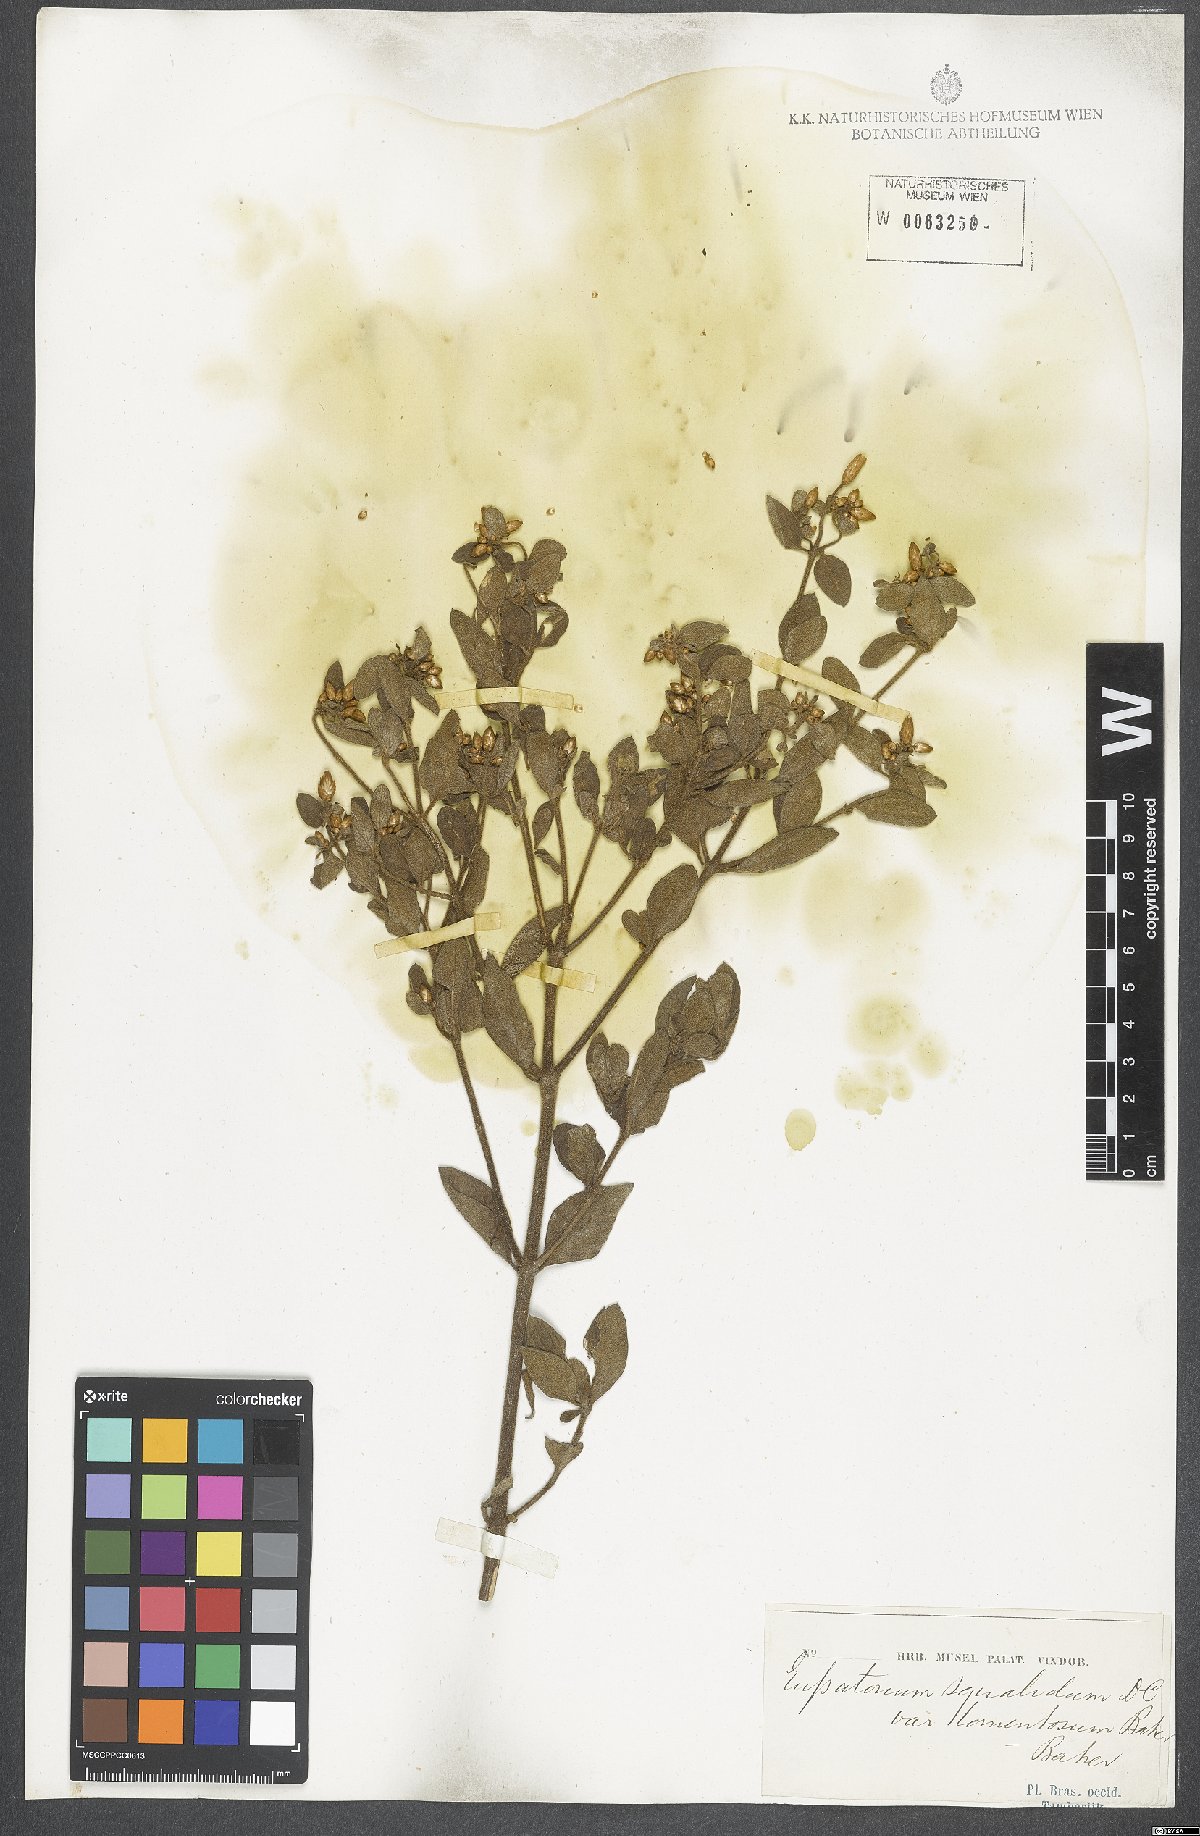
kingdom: Plantae
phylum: Tracheophyta
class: Magnoliopsida
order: Asterales
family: Asteraceae
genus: Chromolaena
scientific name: Chromolaena squalida
